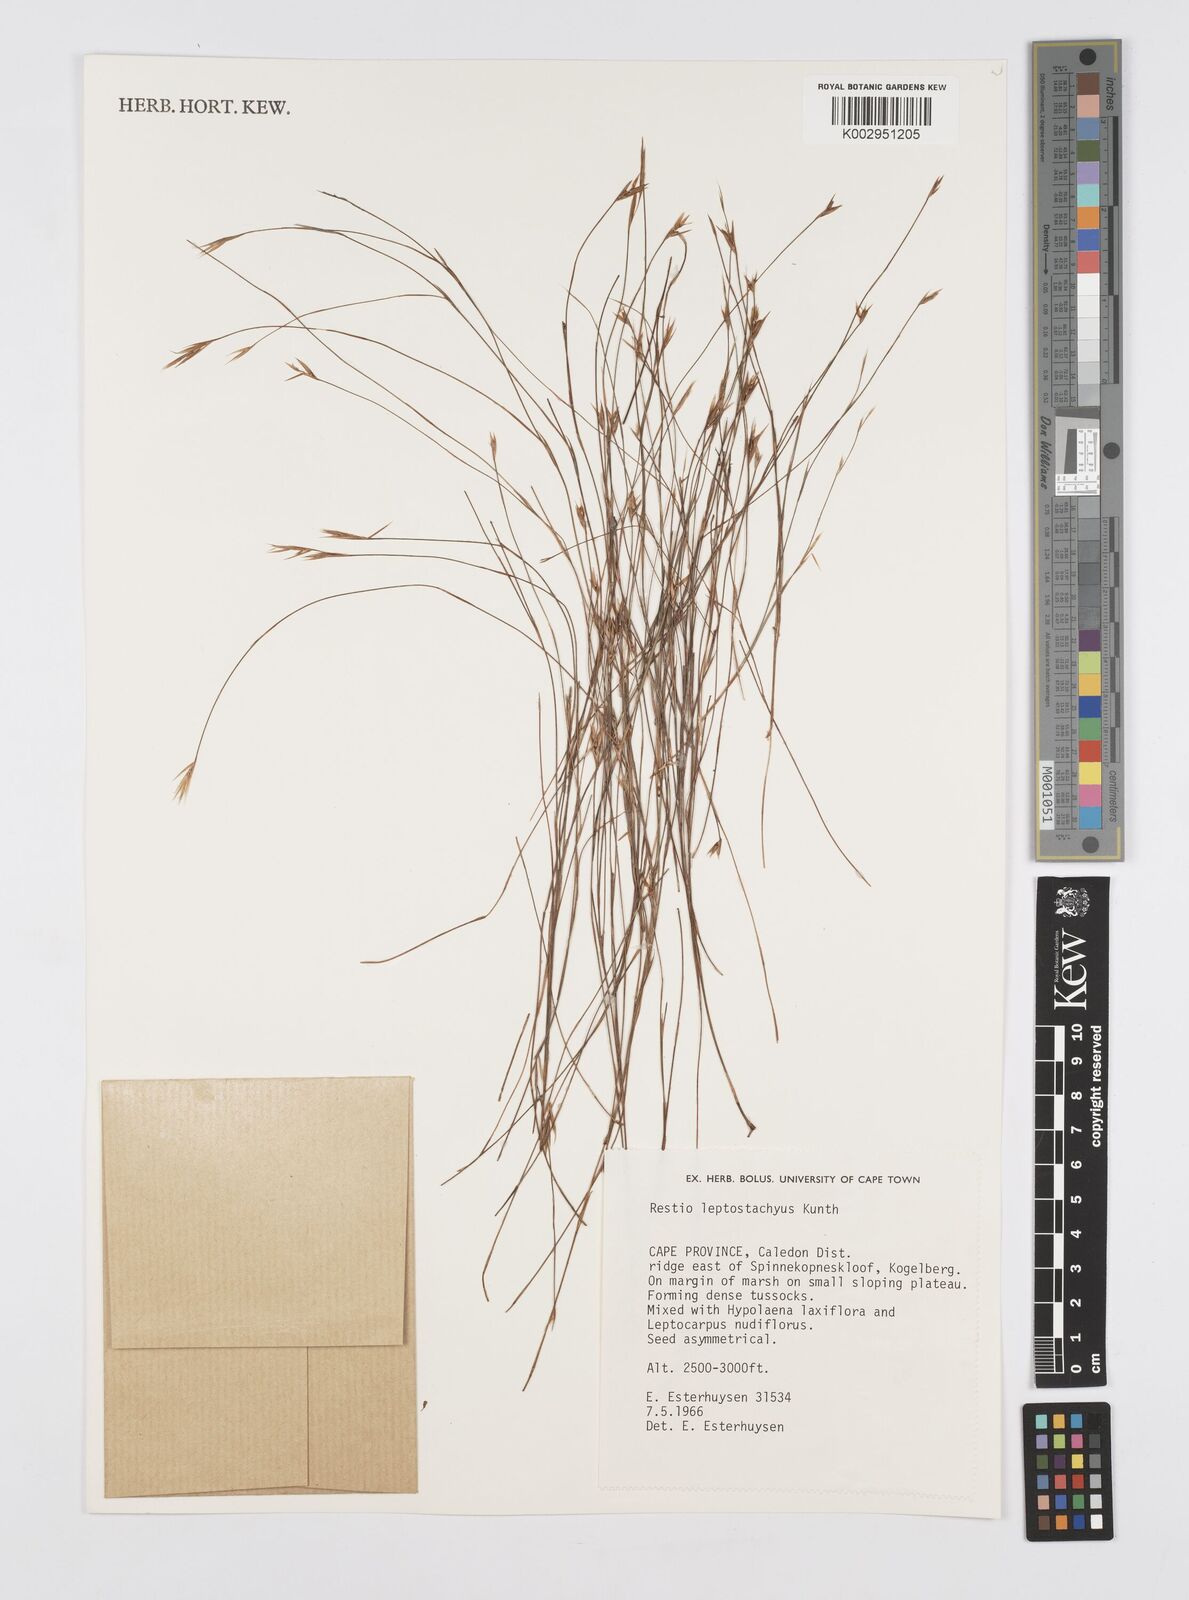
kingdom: Plantae
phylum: Tracheophyta
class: Liliopsida
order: Poales
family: Restionaceae
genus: Restio
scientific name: Restio leptostachyus
